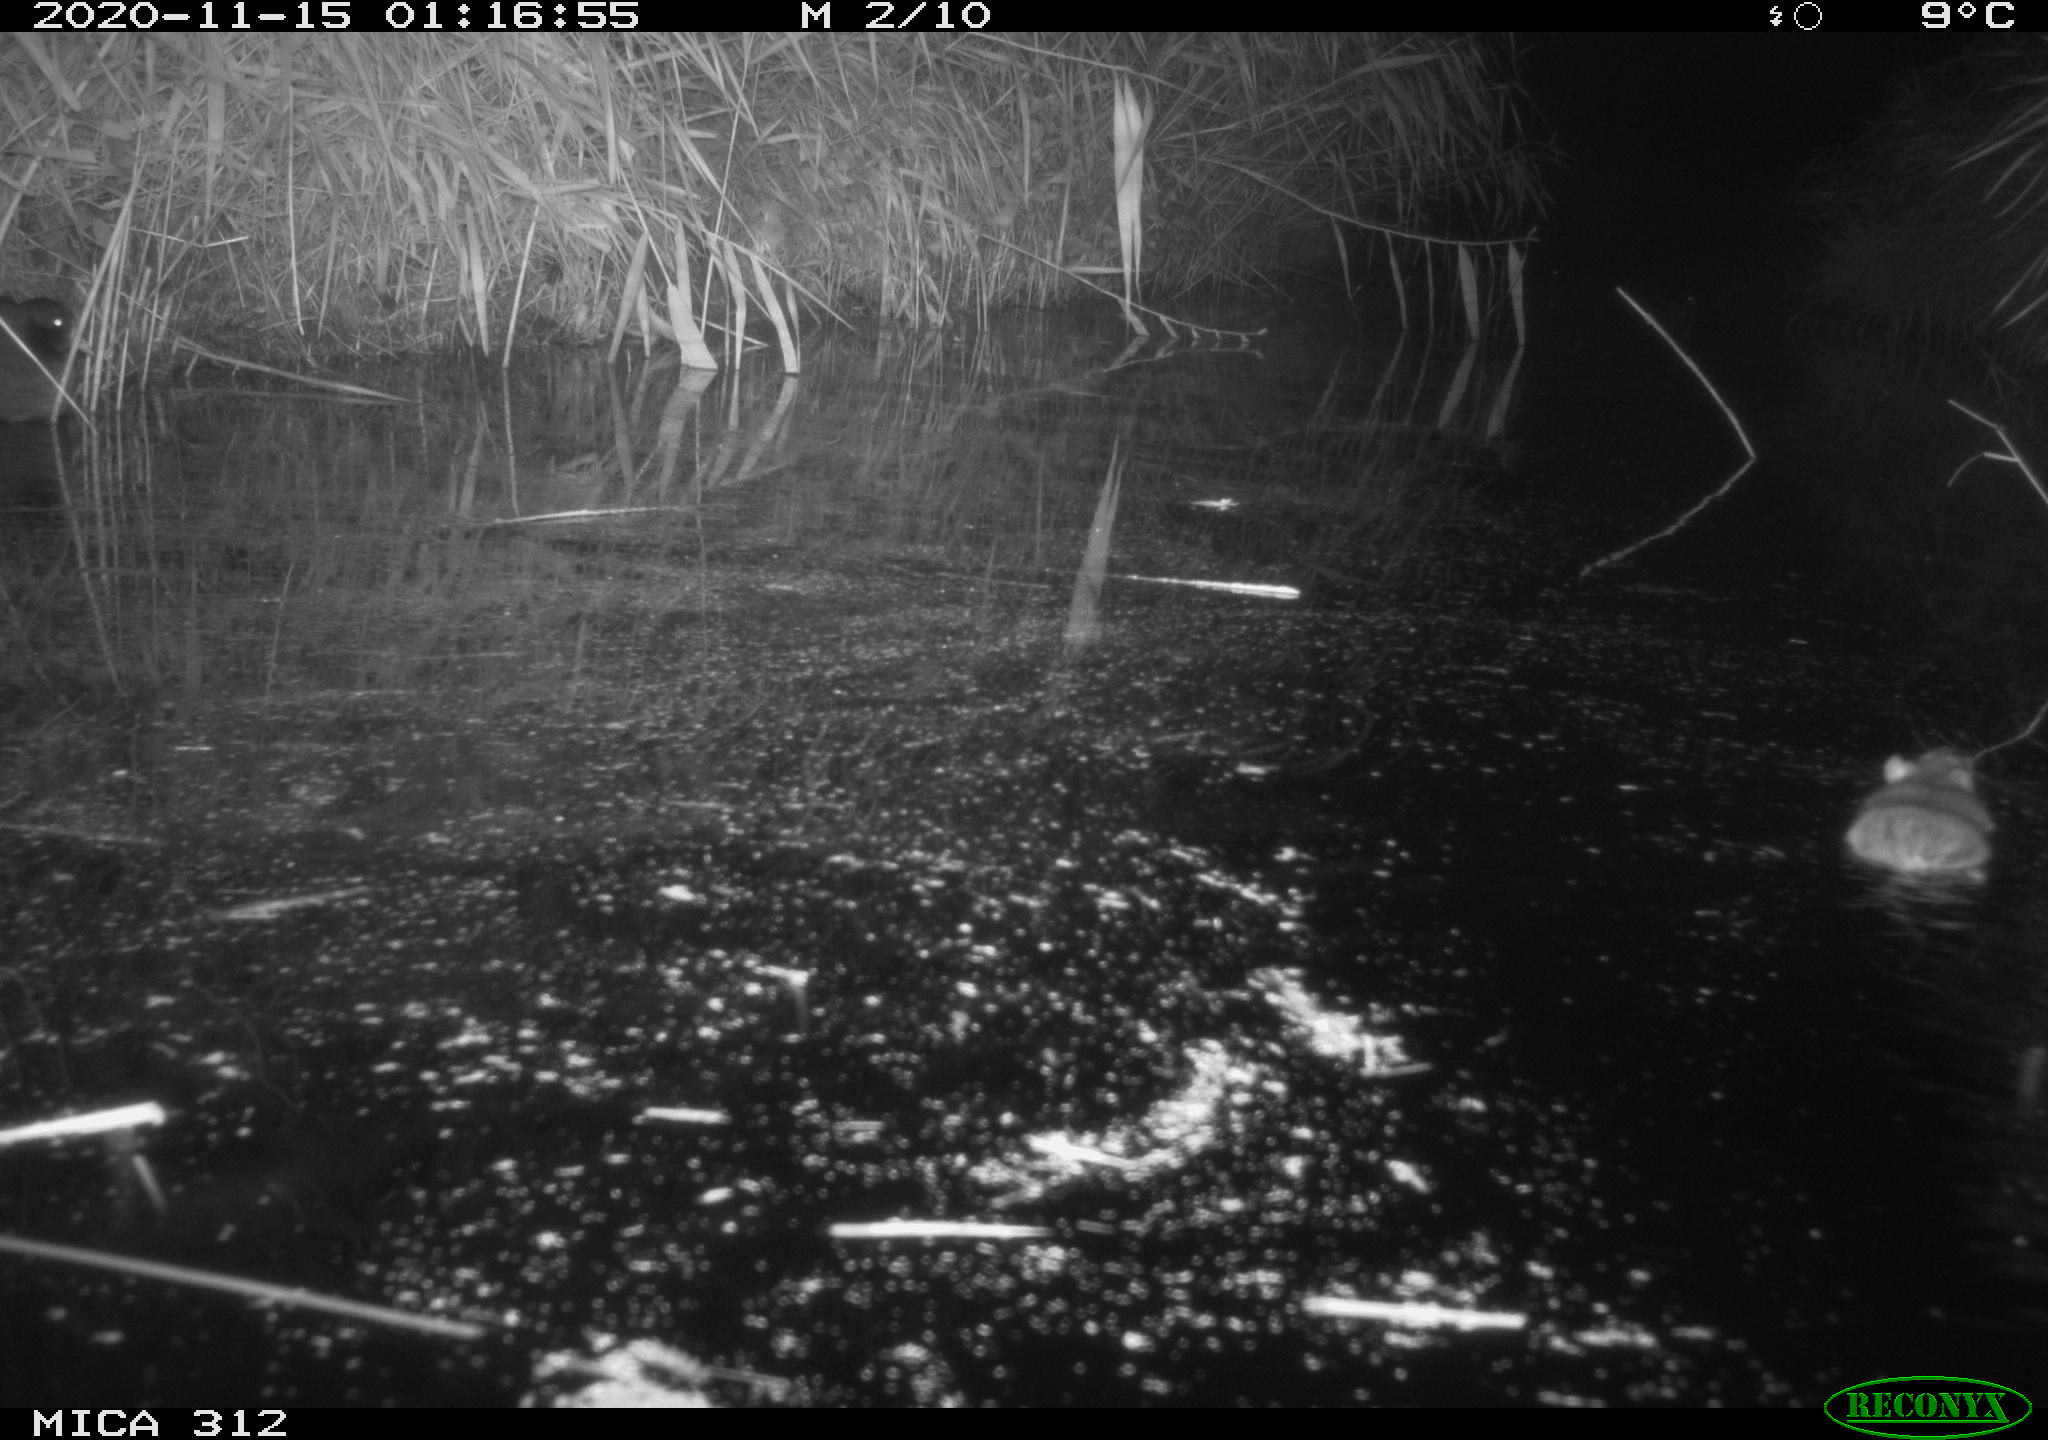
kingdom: Animalia
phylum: Chordata
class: Aves
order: Gruiformes
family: Rallidae
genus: Gallinula
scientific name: Gallinula chloropus
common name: Common moorhen
